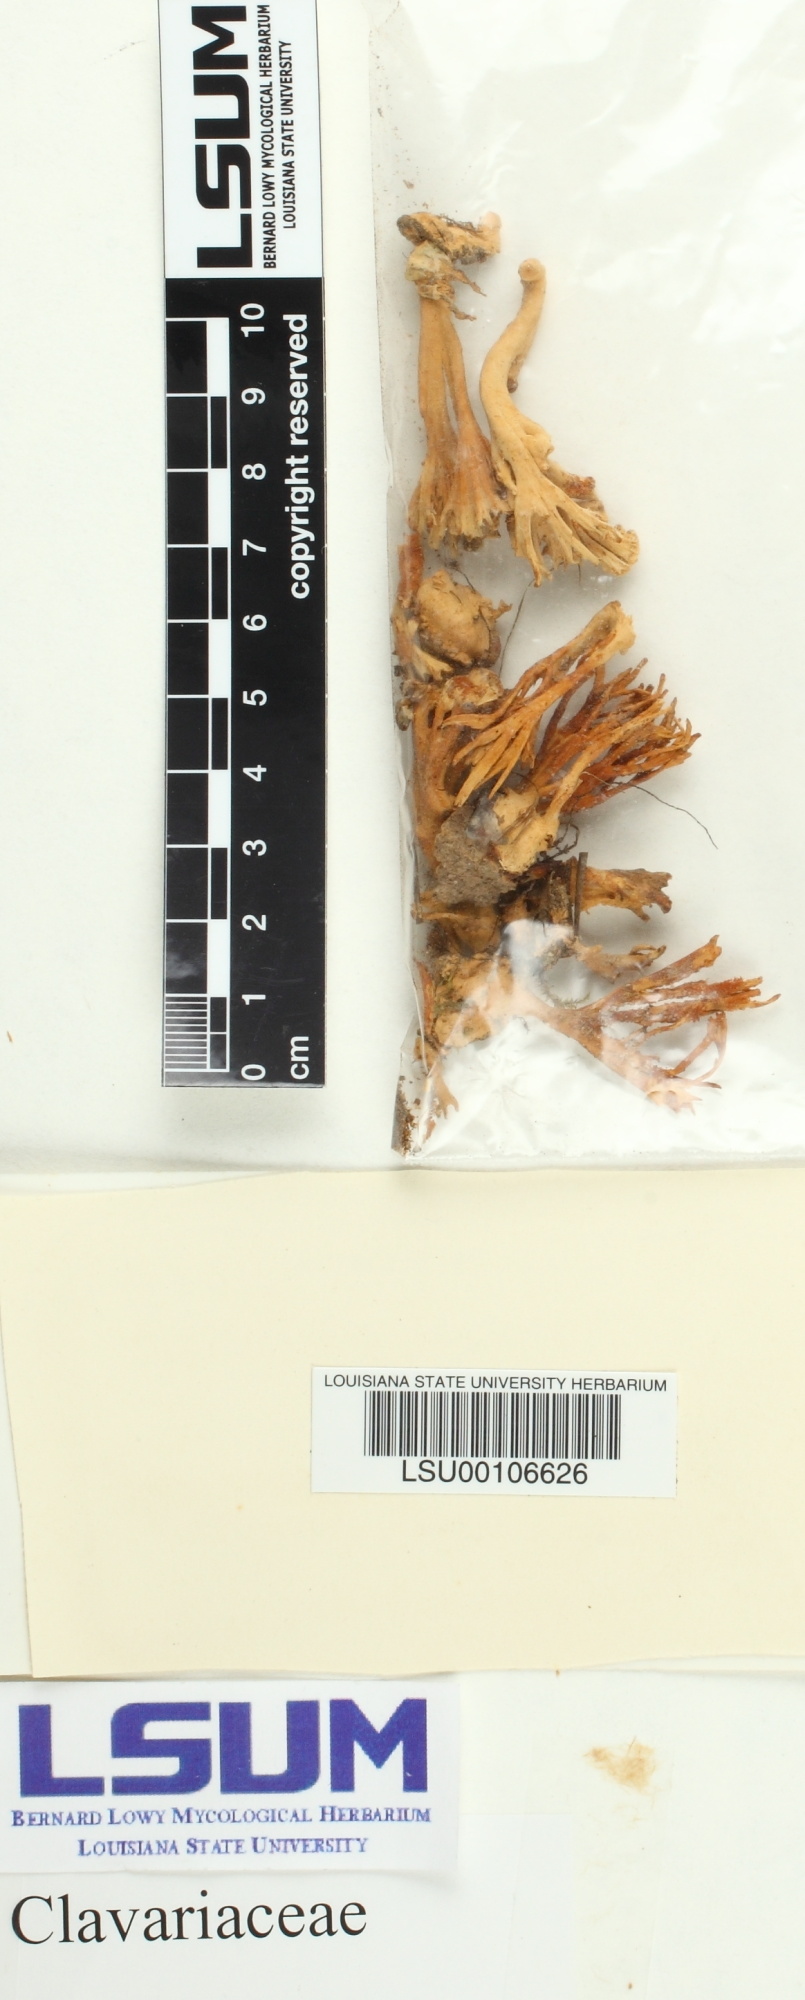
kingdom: Fungi
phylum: Basidiomycota
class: Agaricomycetes
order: Agaricales
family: Clavariaceae
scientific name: Clavariaceae
